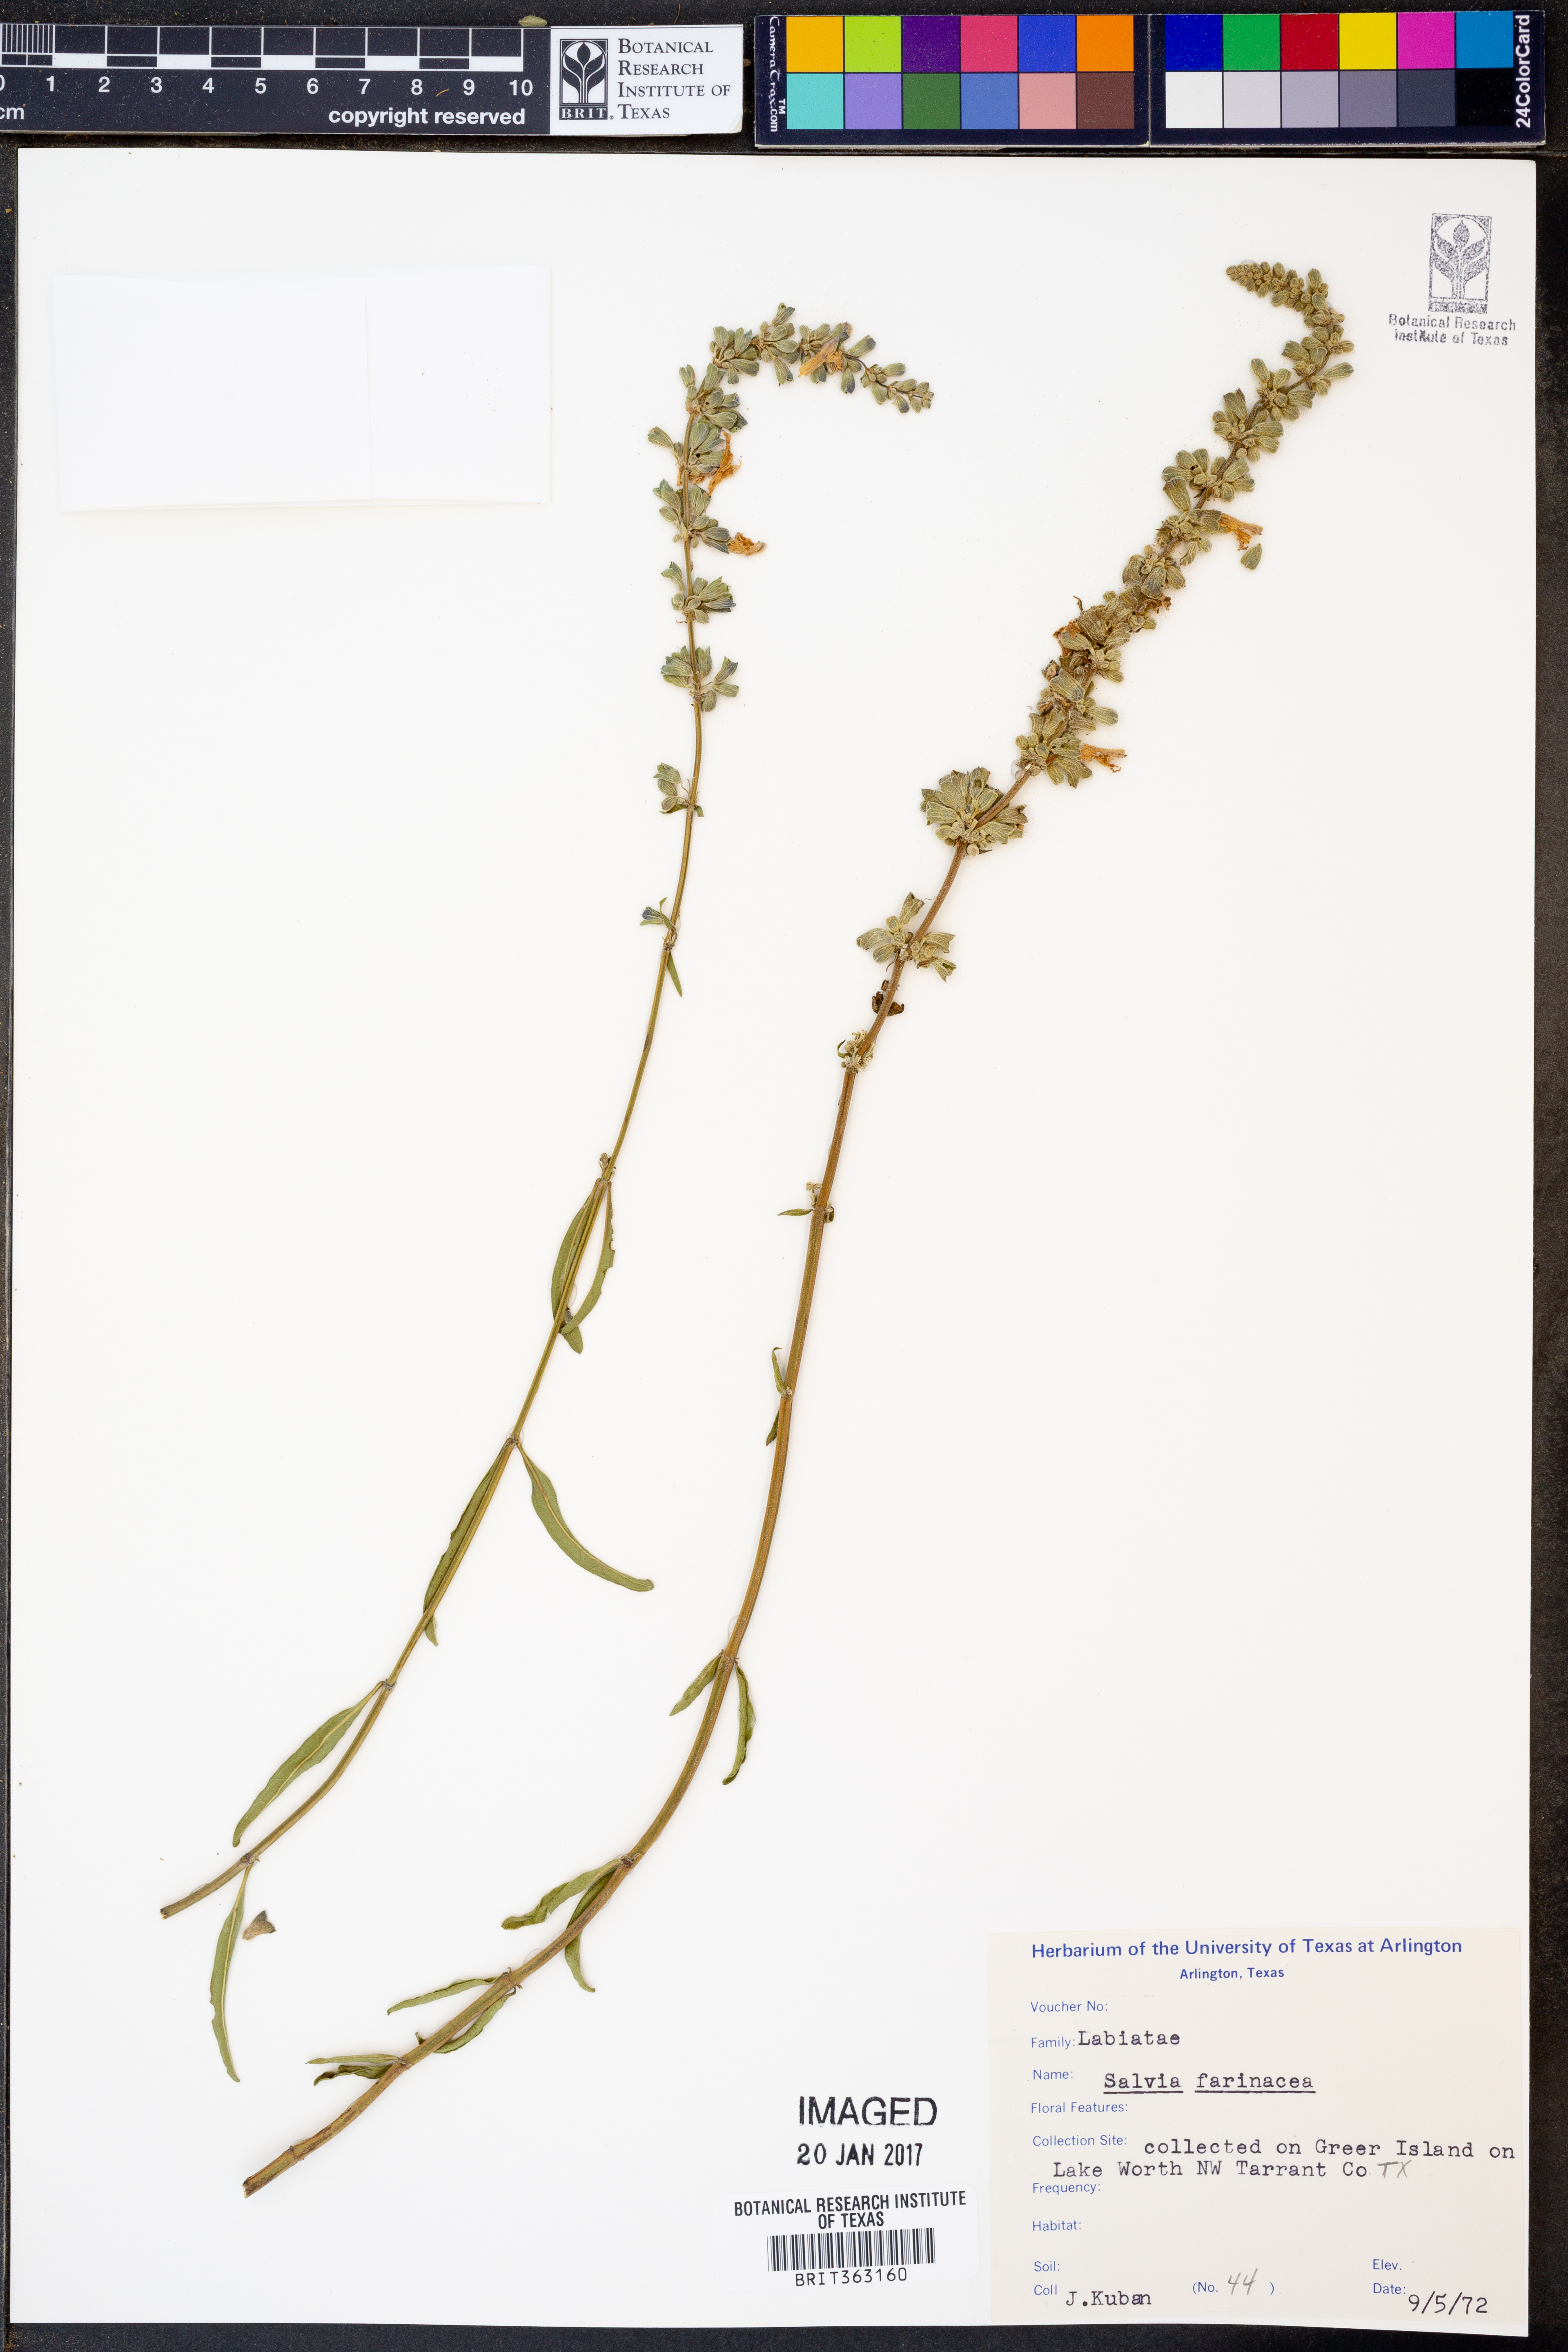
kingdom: Plantae
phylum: Tracheophyta
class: Magnoliopsida
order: Lamiales
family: Lamiaceae
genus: Salvia
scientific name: Salvia farinacea
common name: Mealy sage
